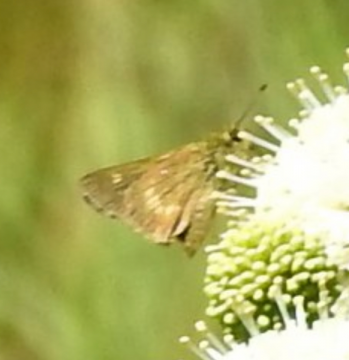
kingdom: Animalia
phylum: Arthropoda
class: Insecta
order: Lepidoptera
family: Hesperiidae
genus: Polites
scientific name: Polites egeremet
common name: Northern Broken-Dash
